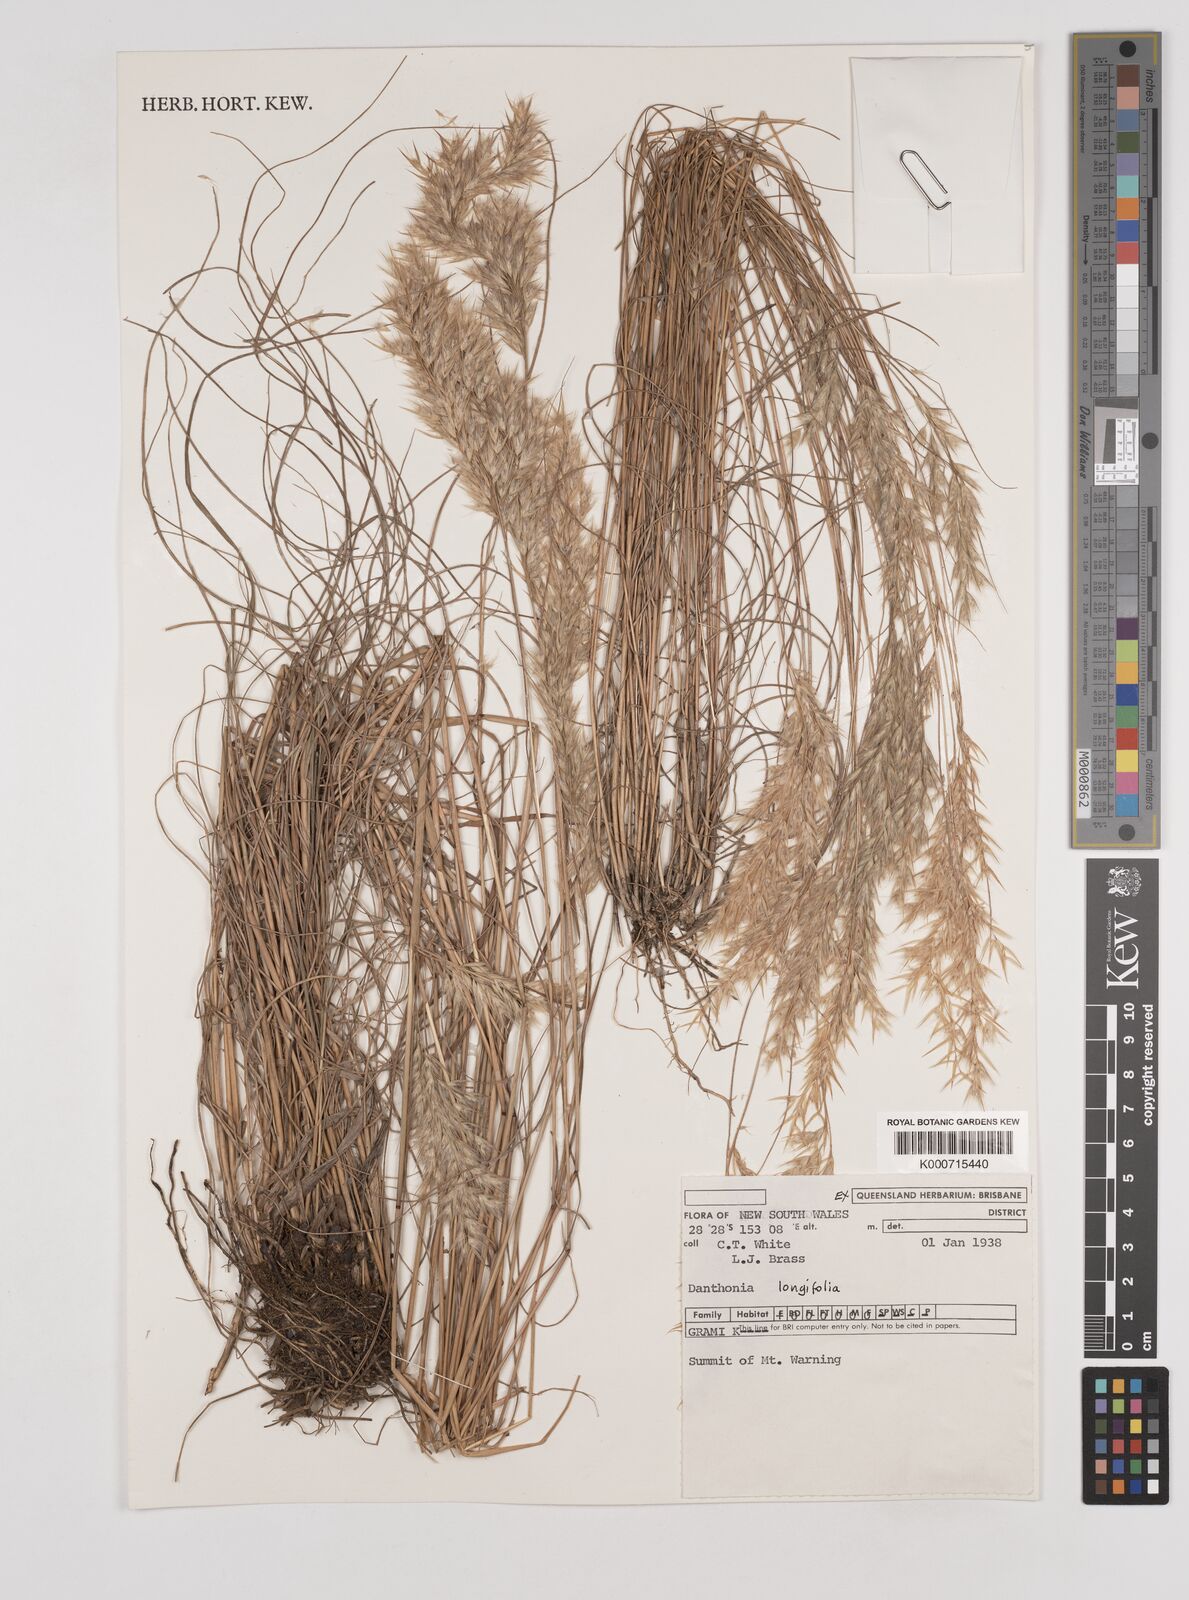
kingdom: Plantae
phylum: Tracheophyta
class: Liliopsida
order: Poales
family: Poaceae
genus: Rytidosperma
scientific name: Rytidosperma longifolium
